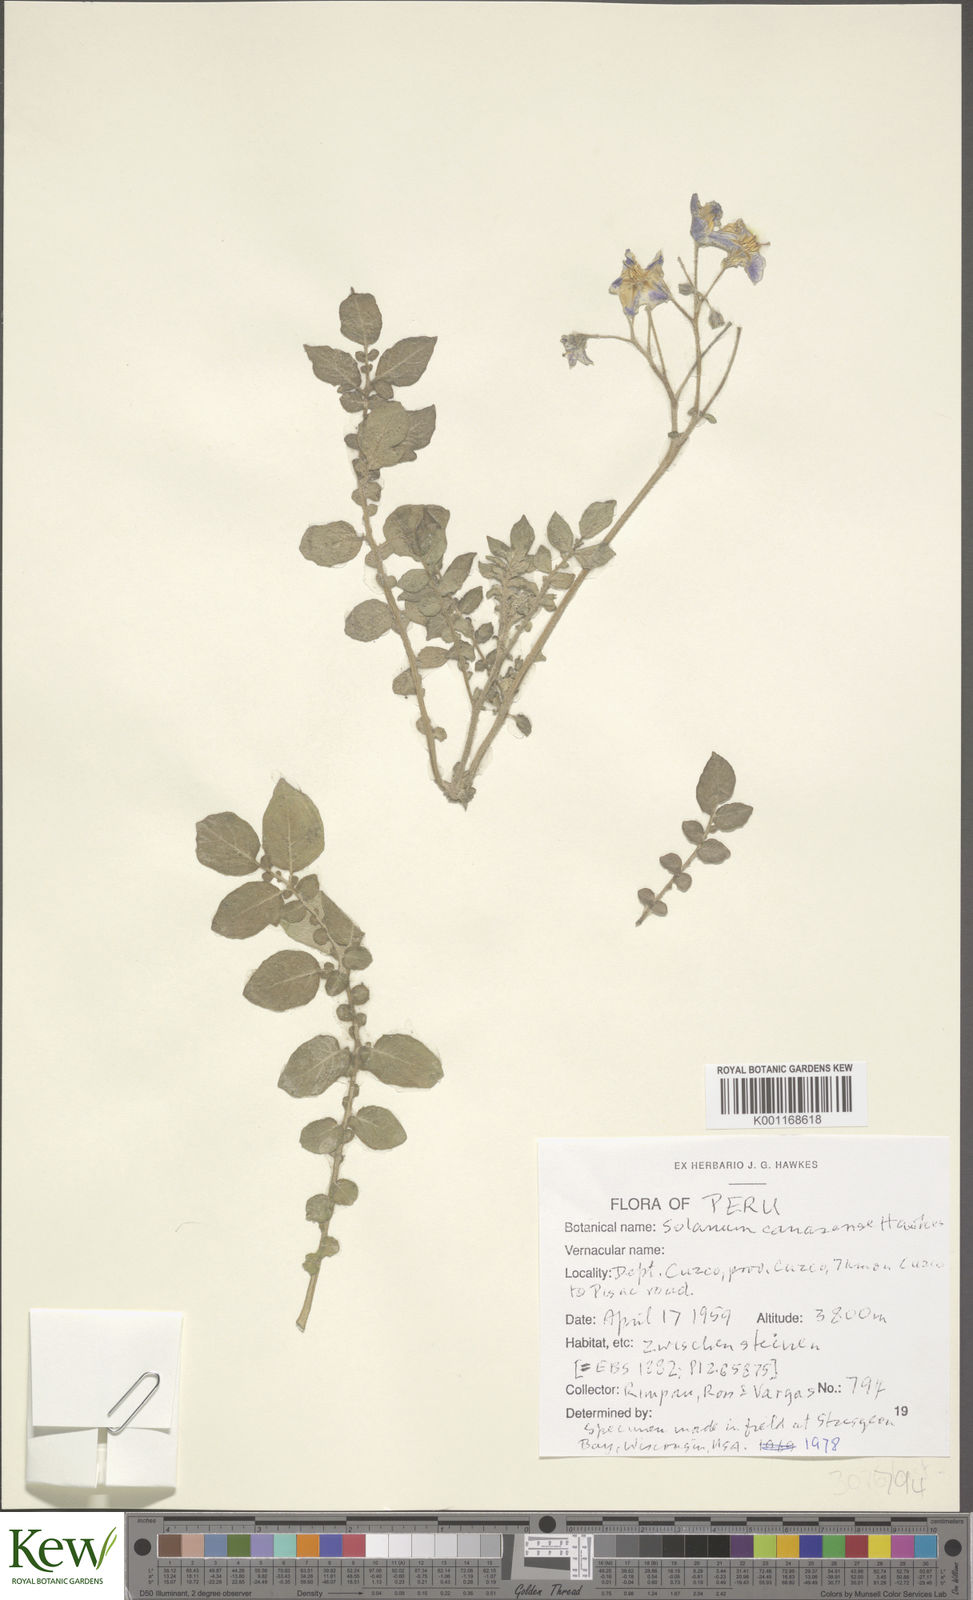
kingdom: Plantae
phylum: Tracheophyta
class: Magnoliopsida
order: Solanales
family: Solanaceae
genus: Solanum
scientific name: Solanum candolleanum
